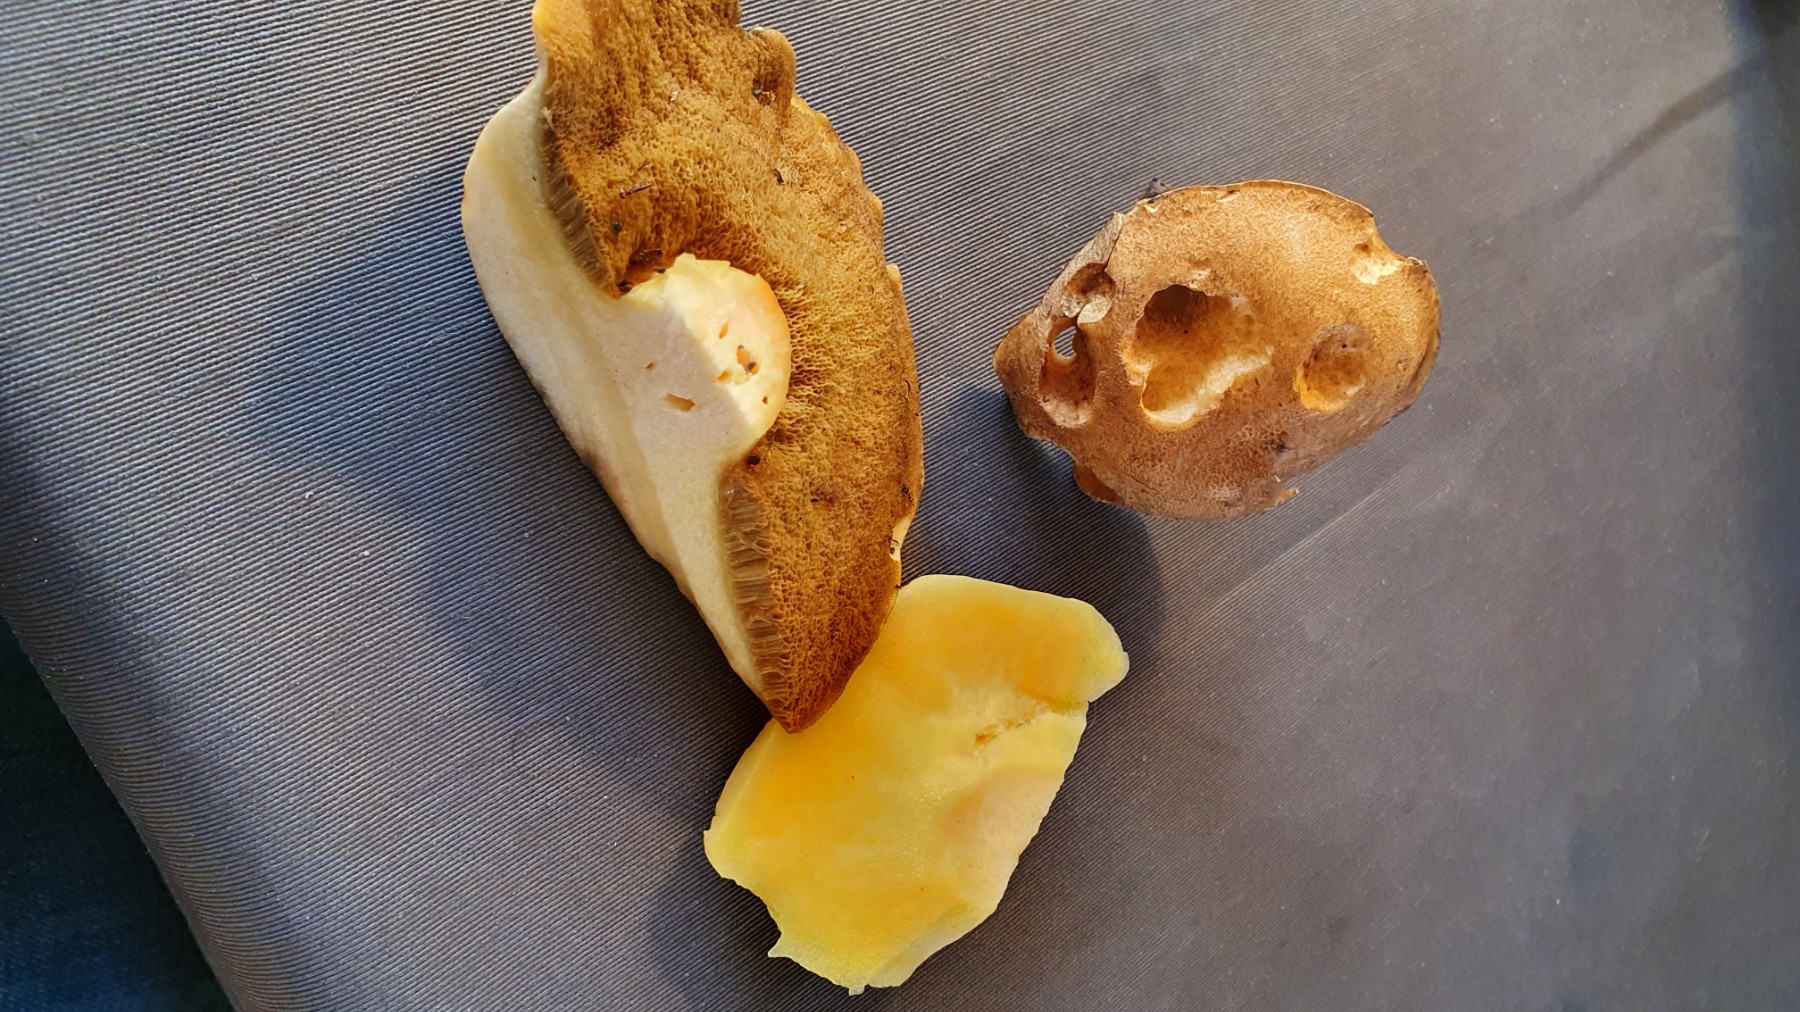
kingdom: Fungi
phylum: Basidiomycota
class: Agaricomycetes
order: Boletales
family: Suillaceae
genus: Suillus
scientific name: Suillus
